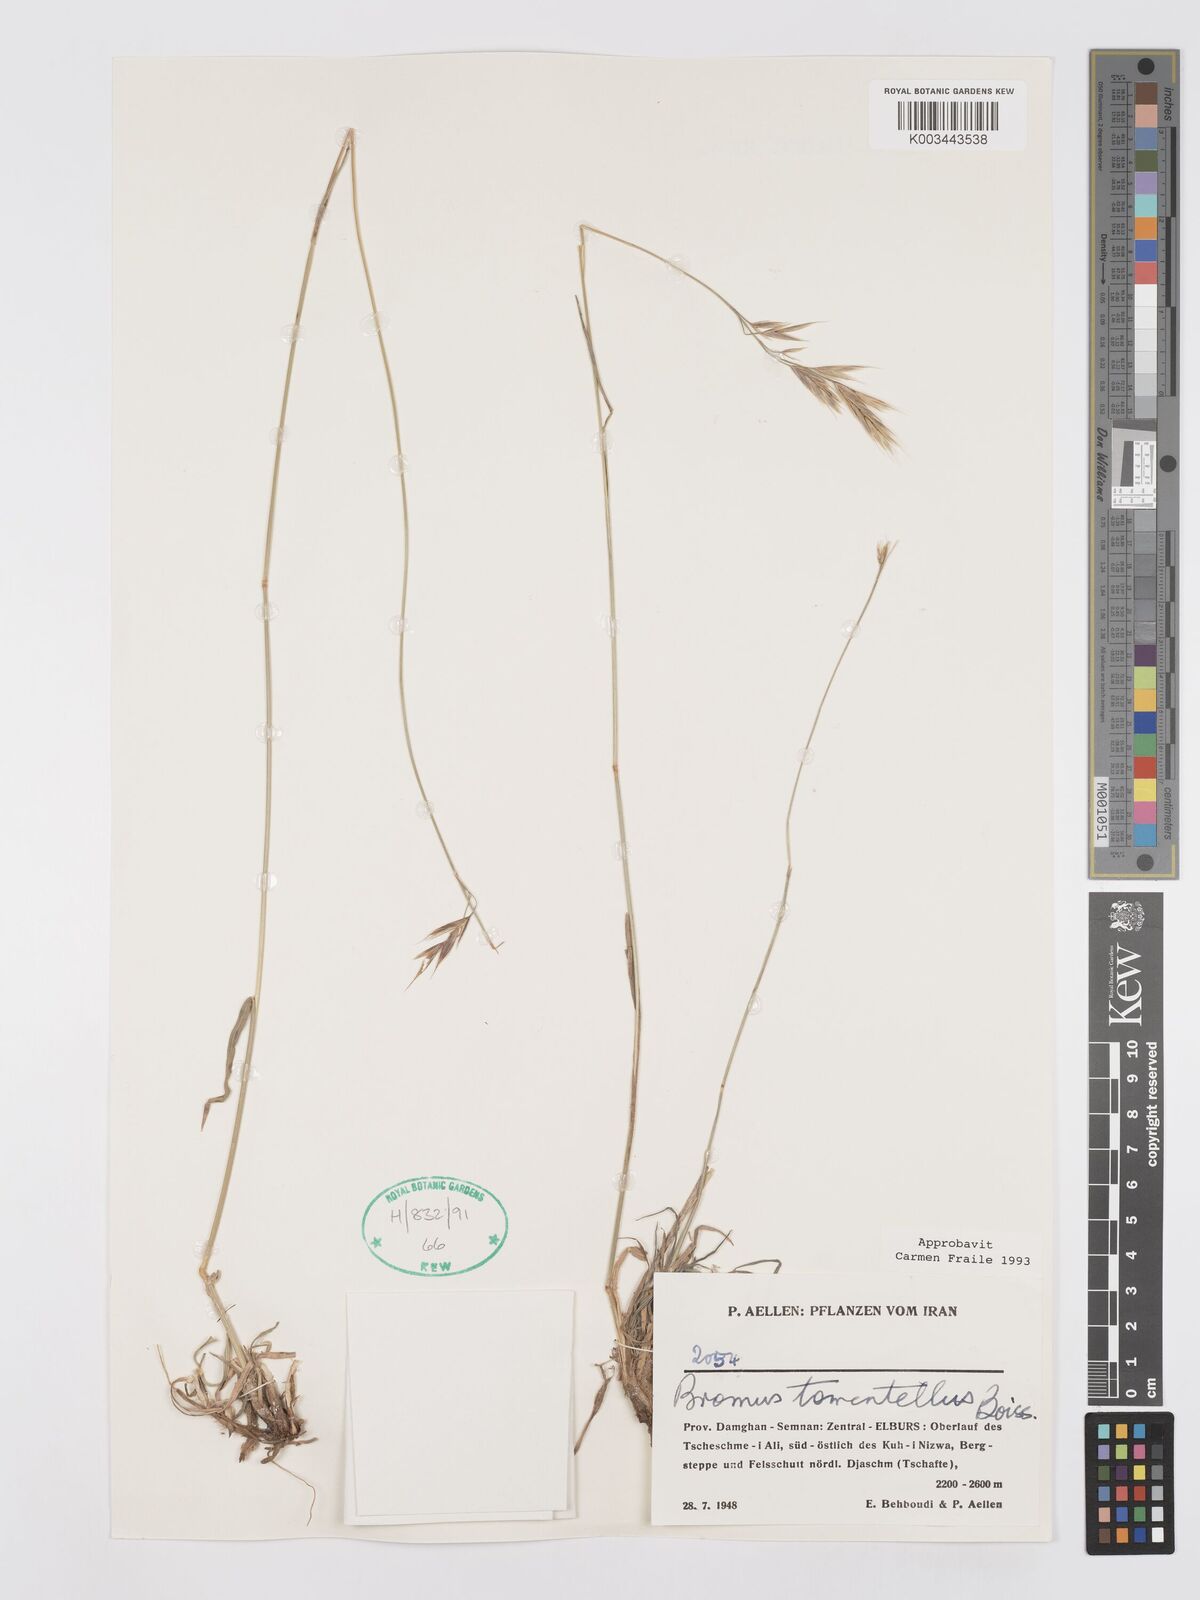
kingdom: Plantae
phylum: Tracheophyta
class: Liliopsida
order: Poales
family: Poaceae
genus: Bromus
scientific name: Bromus tomentellus
